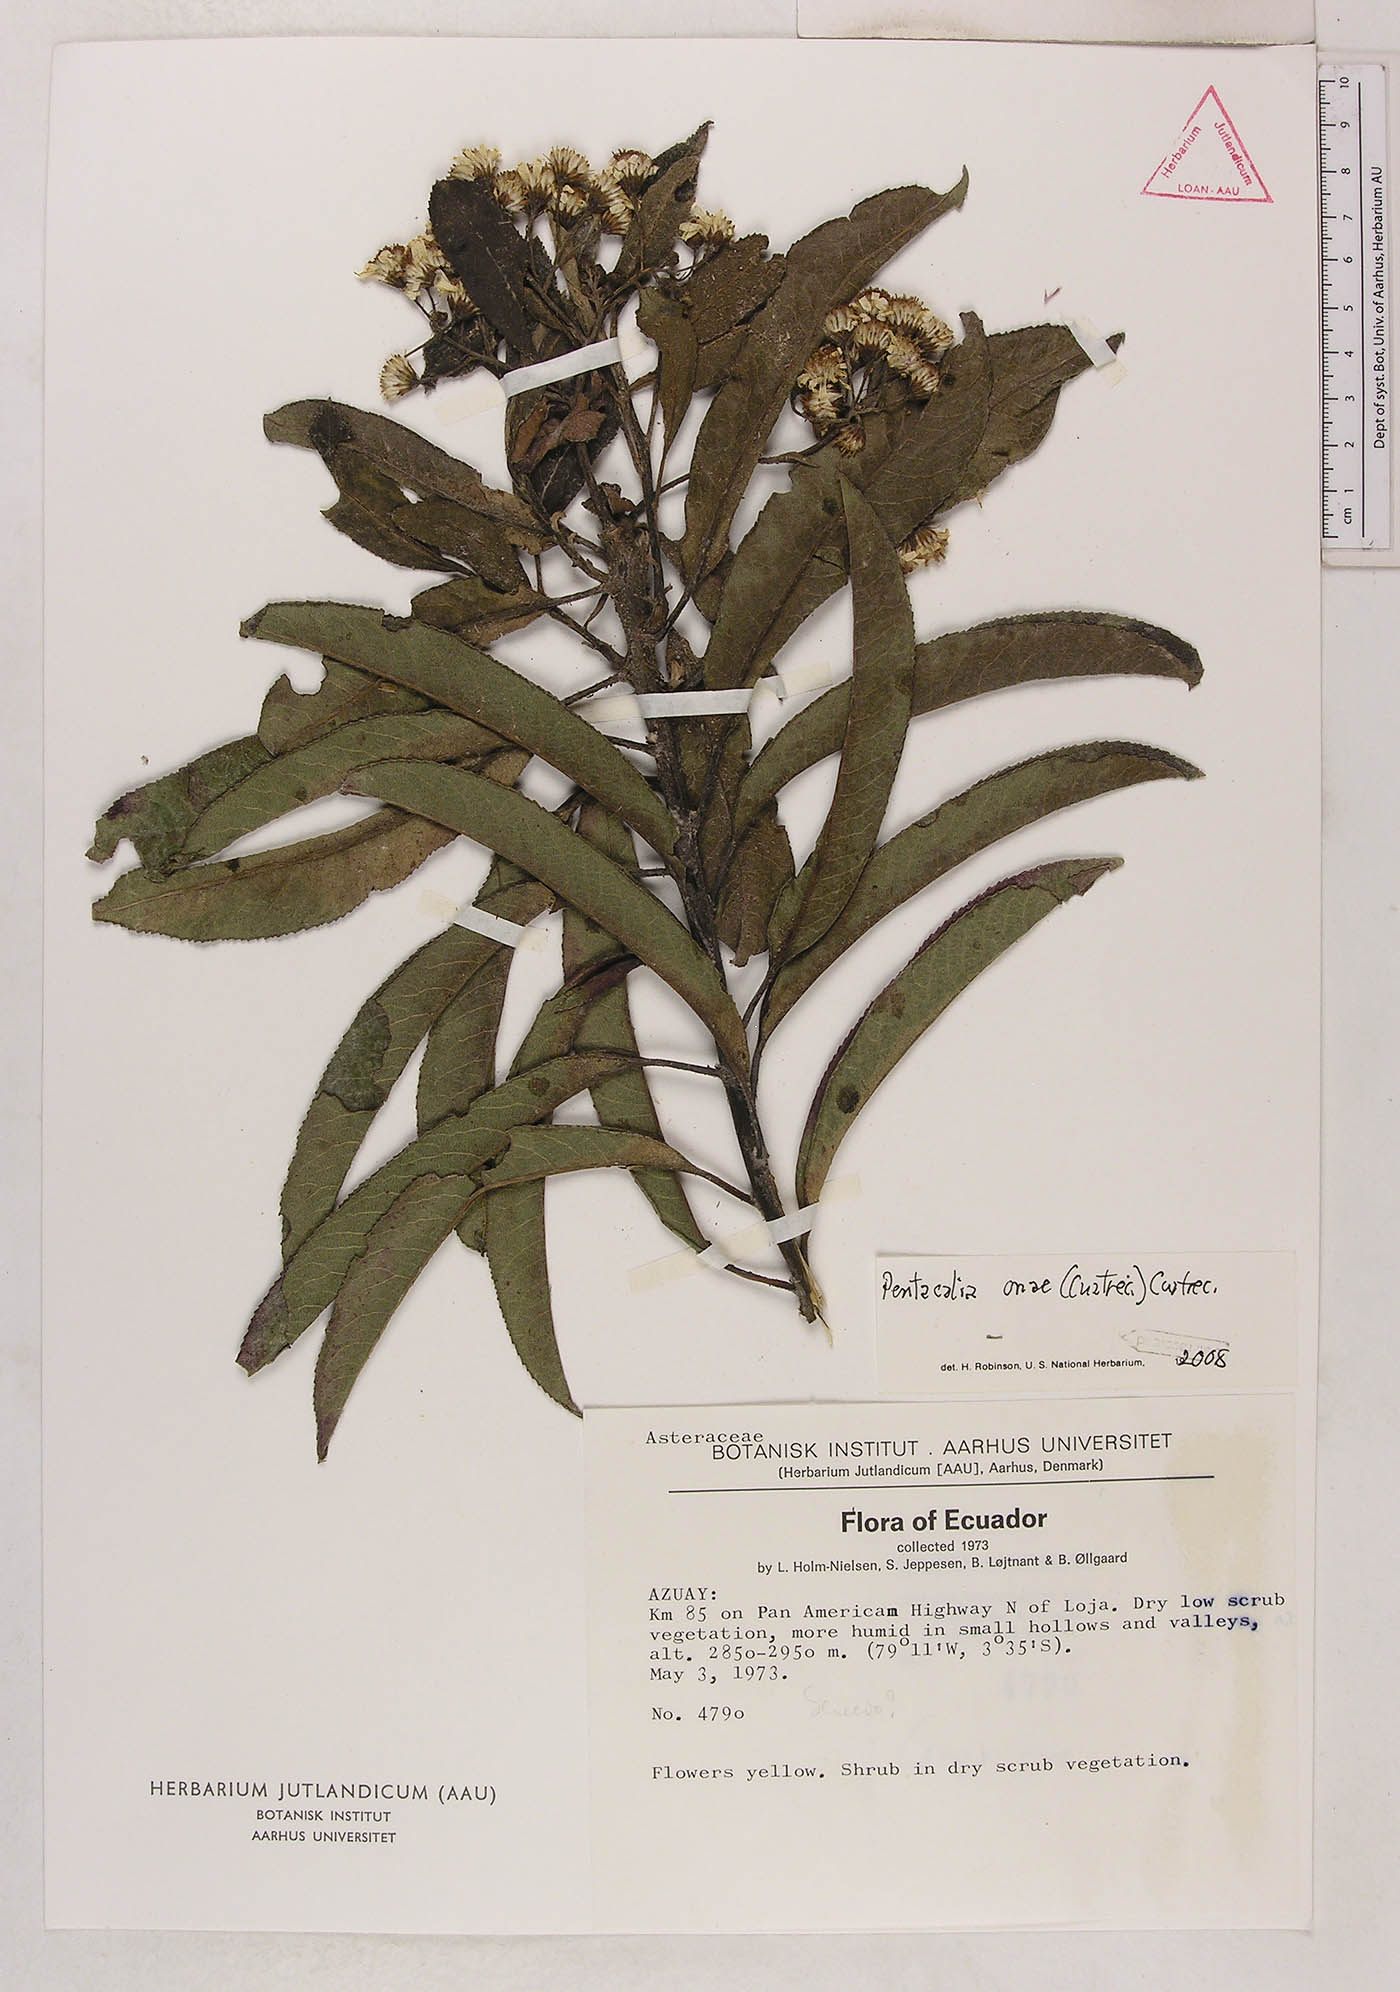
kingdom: Plantae
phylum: Tracheophyta
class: Magnoliopsida
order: Asterales
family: Asteraceae
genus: Dendrophorbium
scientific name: Dendrophorbium scytophyllum
